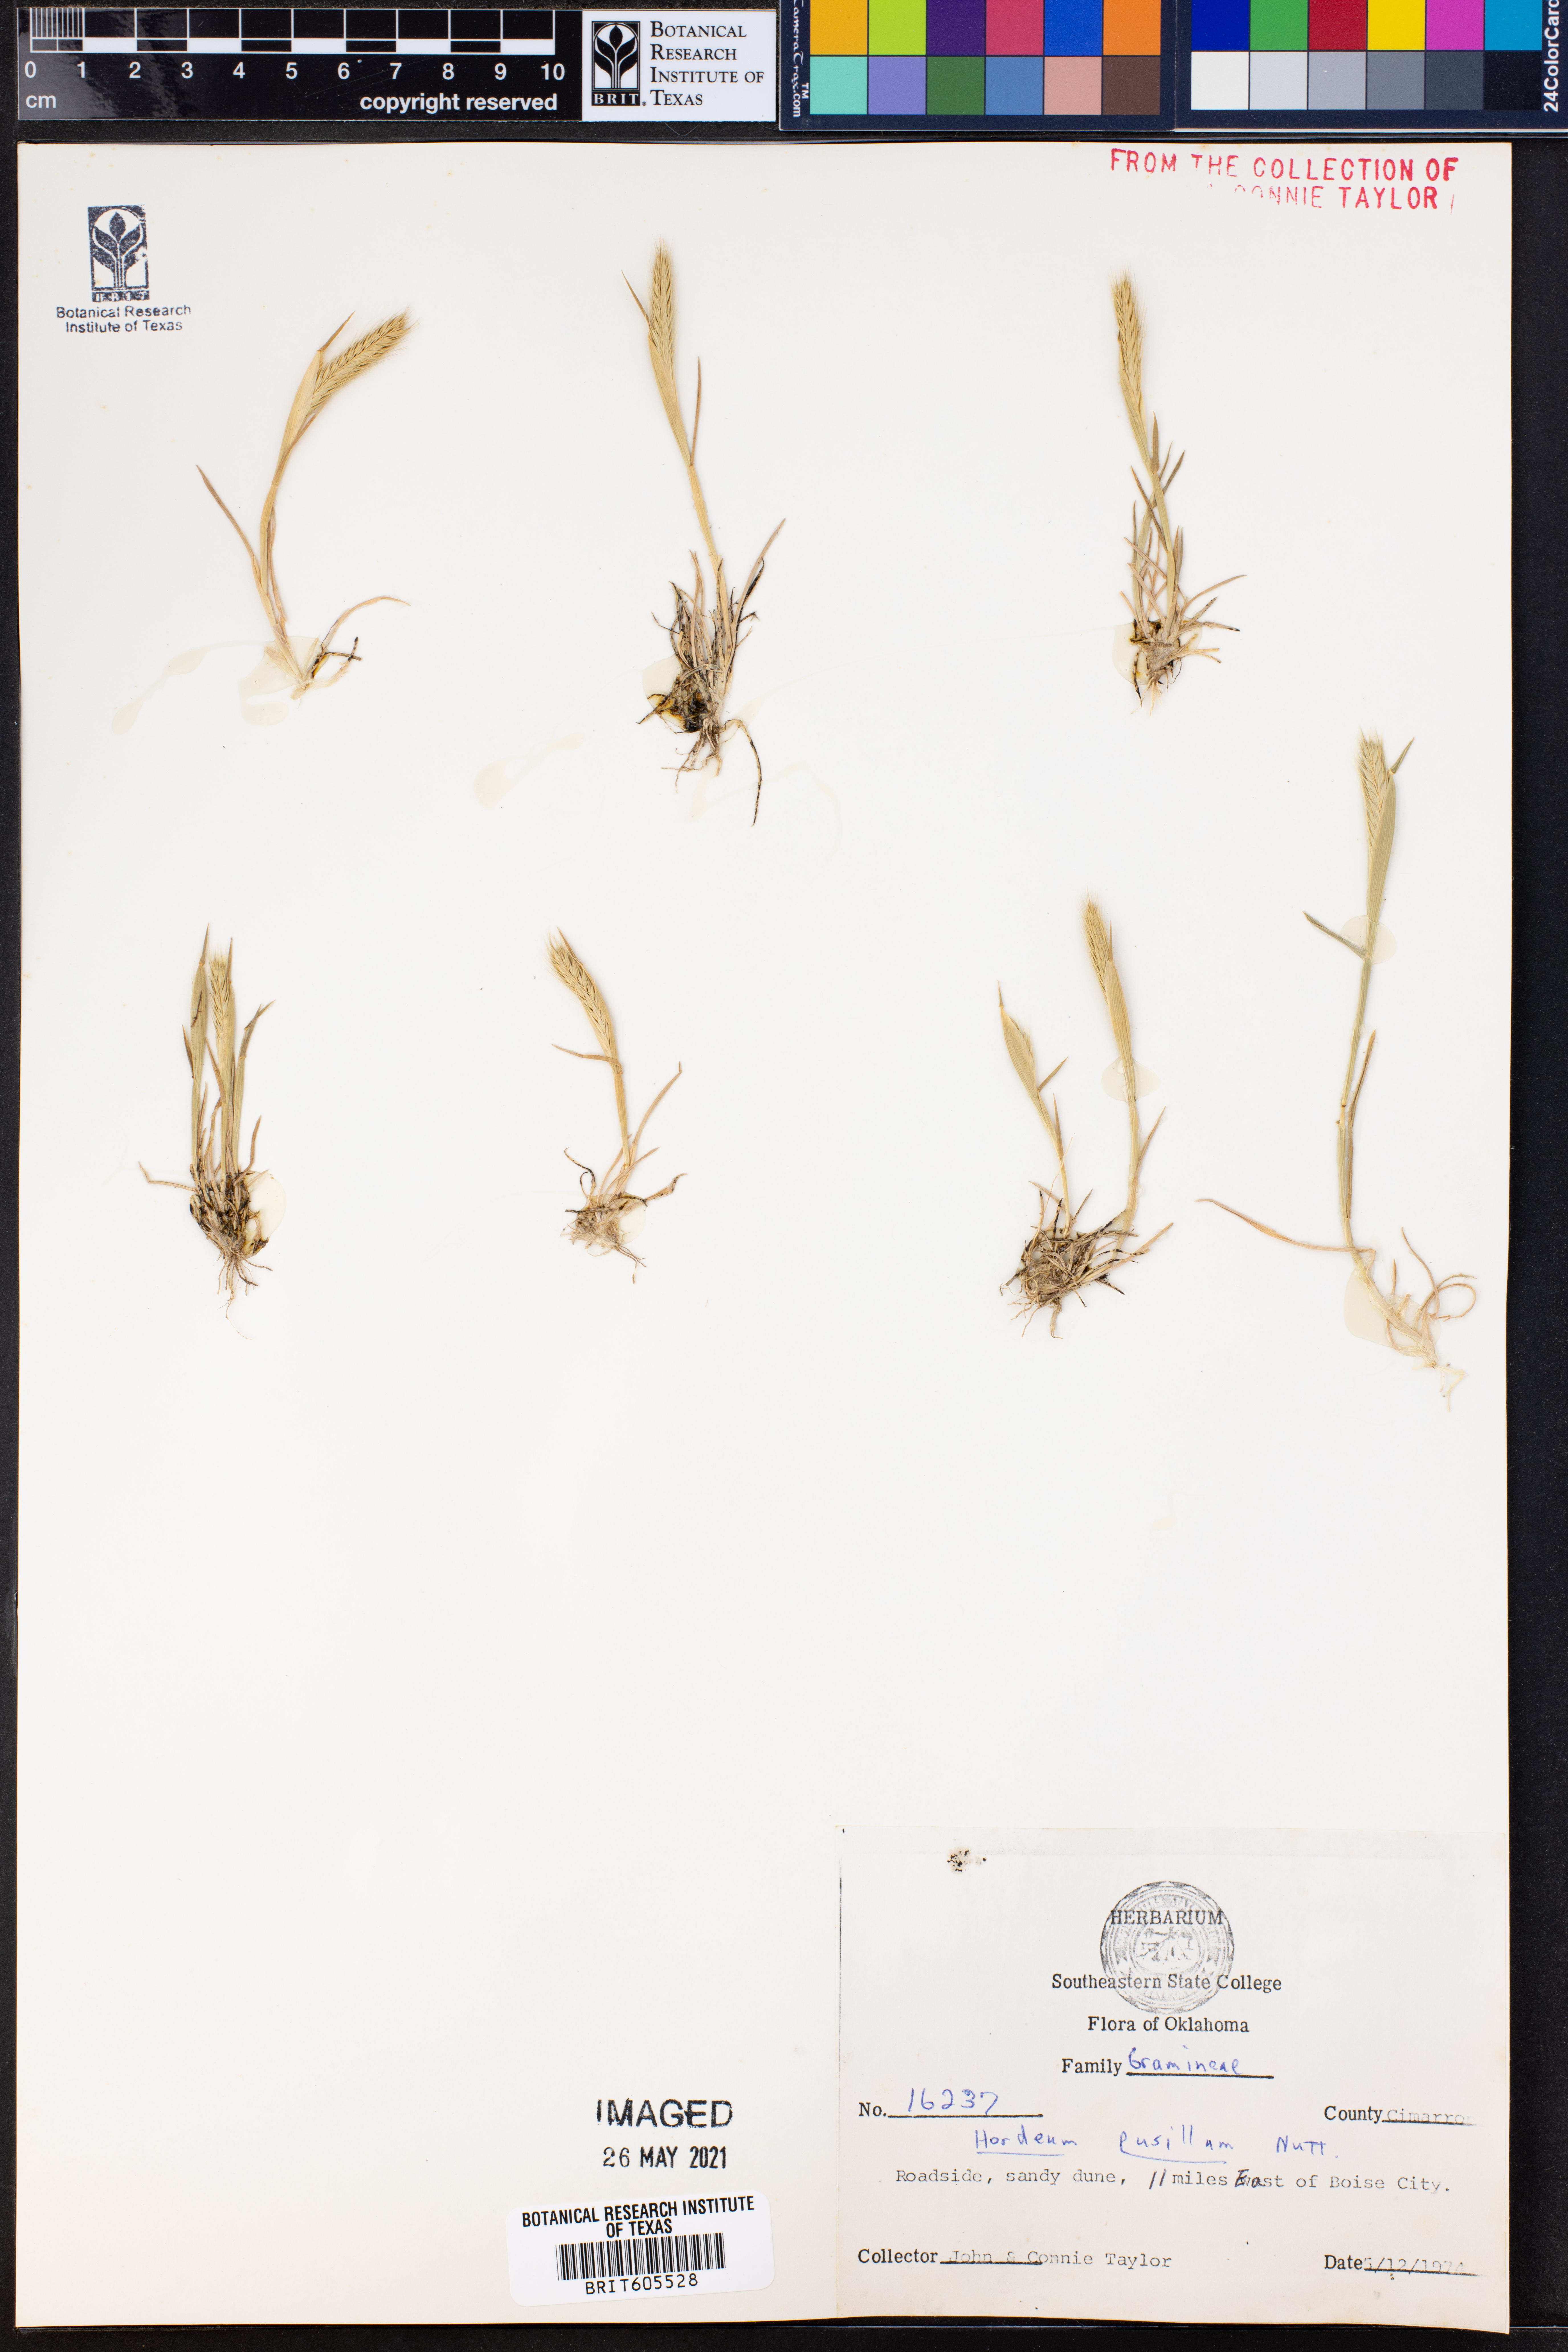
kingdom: Plantae
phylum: Tracheophyta
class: Liliopsida
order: Poales
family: Poaceae
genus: Hordeum
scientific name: Hordeum pusillum
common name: Little barley
